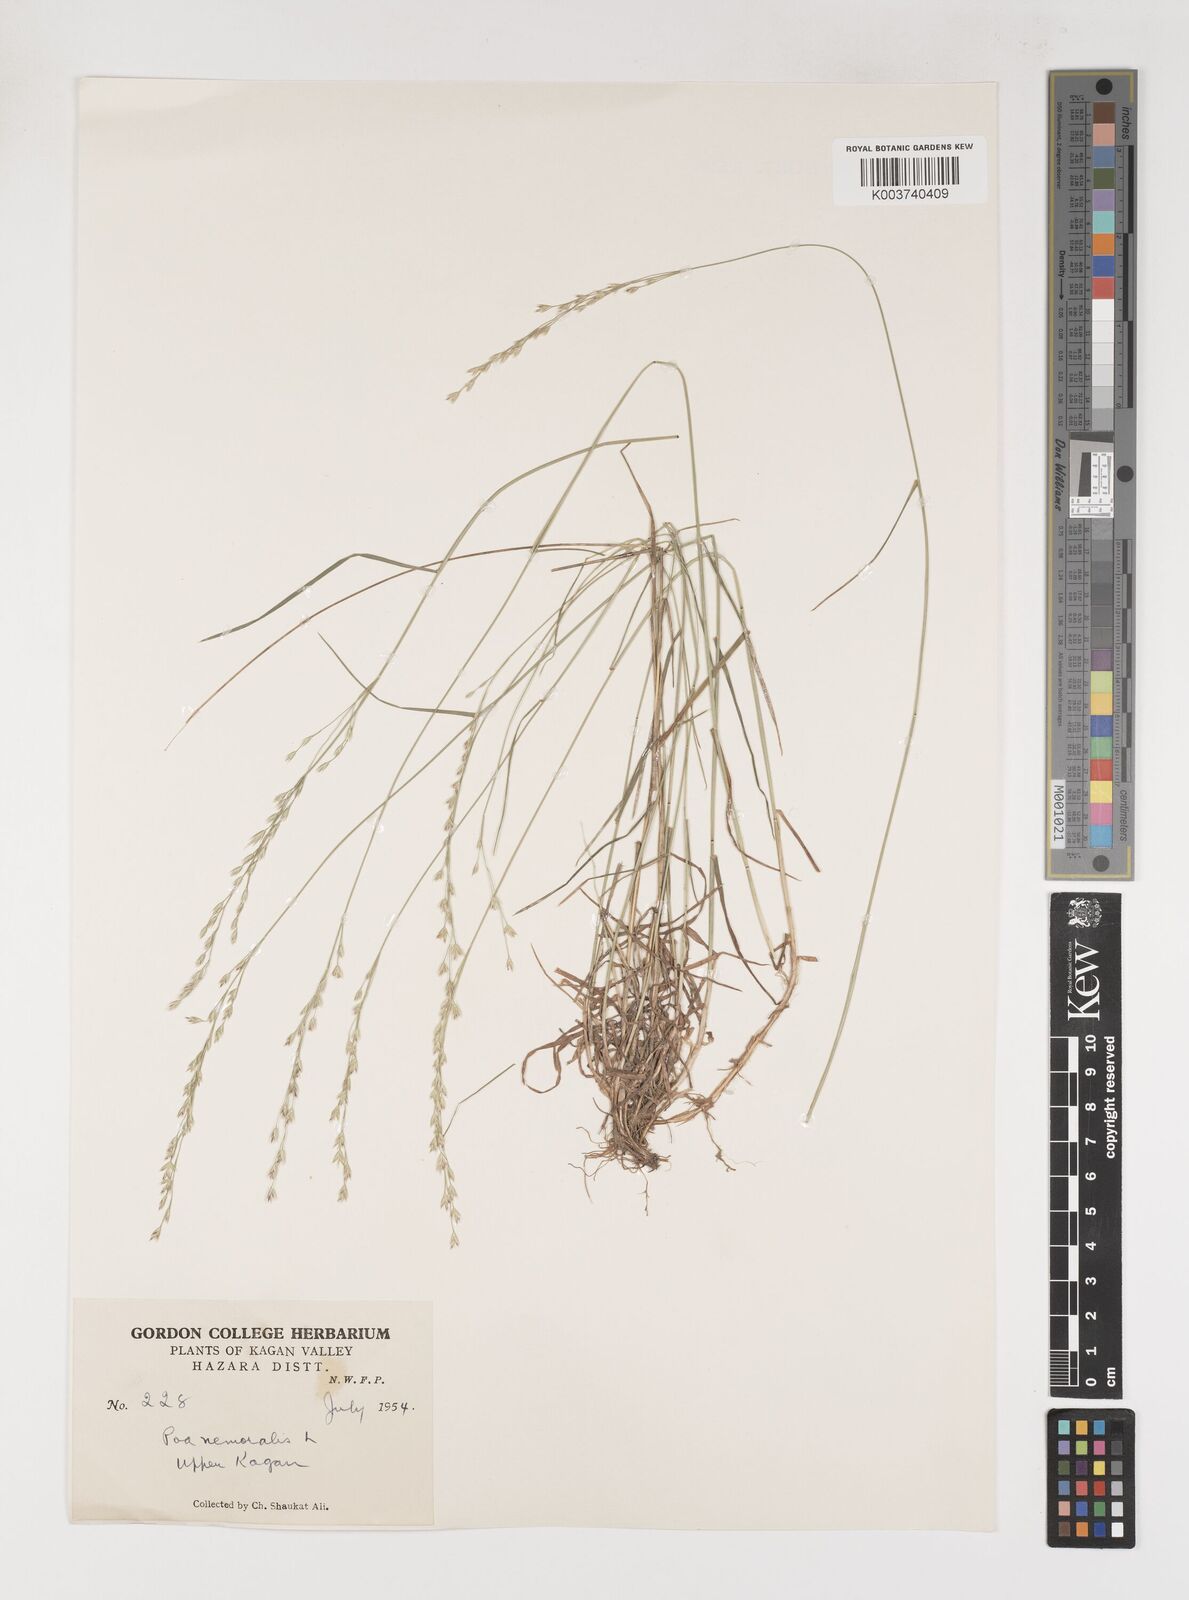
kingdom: Plantae
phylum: Tracheophyta
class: Liliopsida
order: Poales
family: Poaceae
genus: Poa
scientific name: Poa nemoralis
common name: Wood bluegrass
